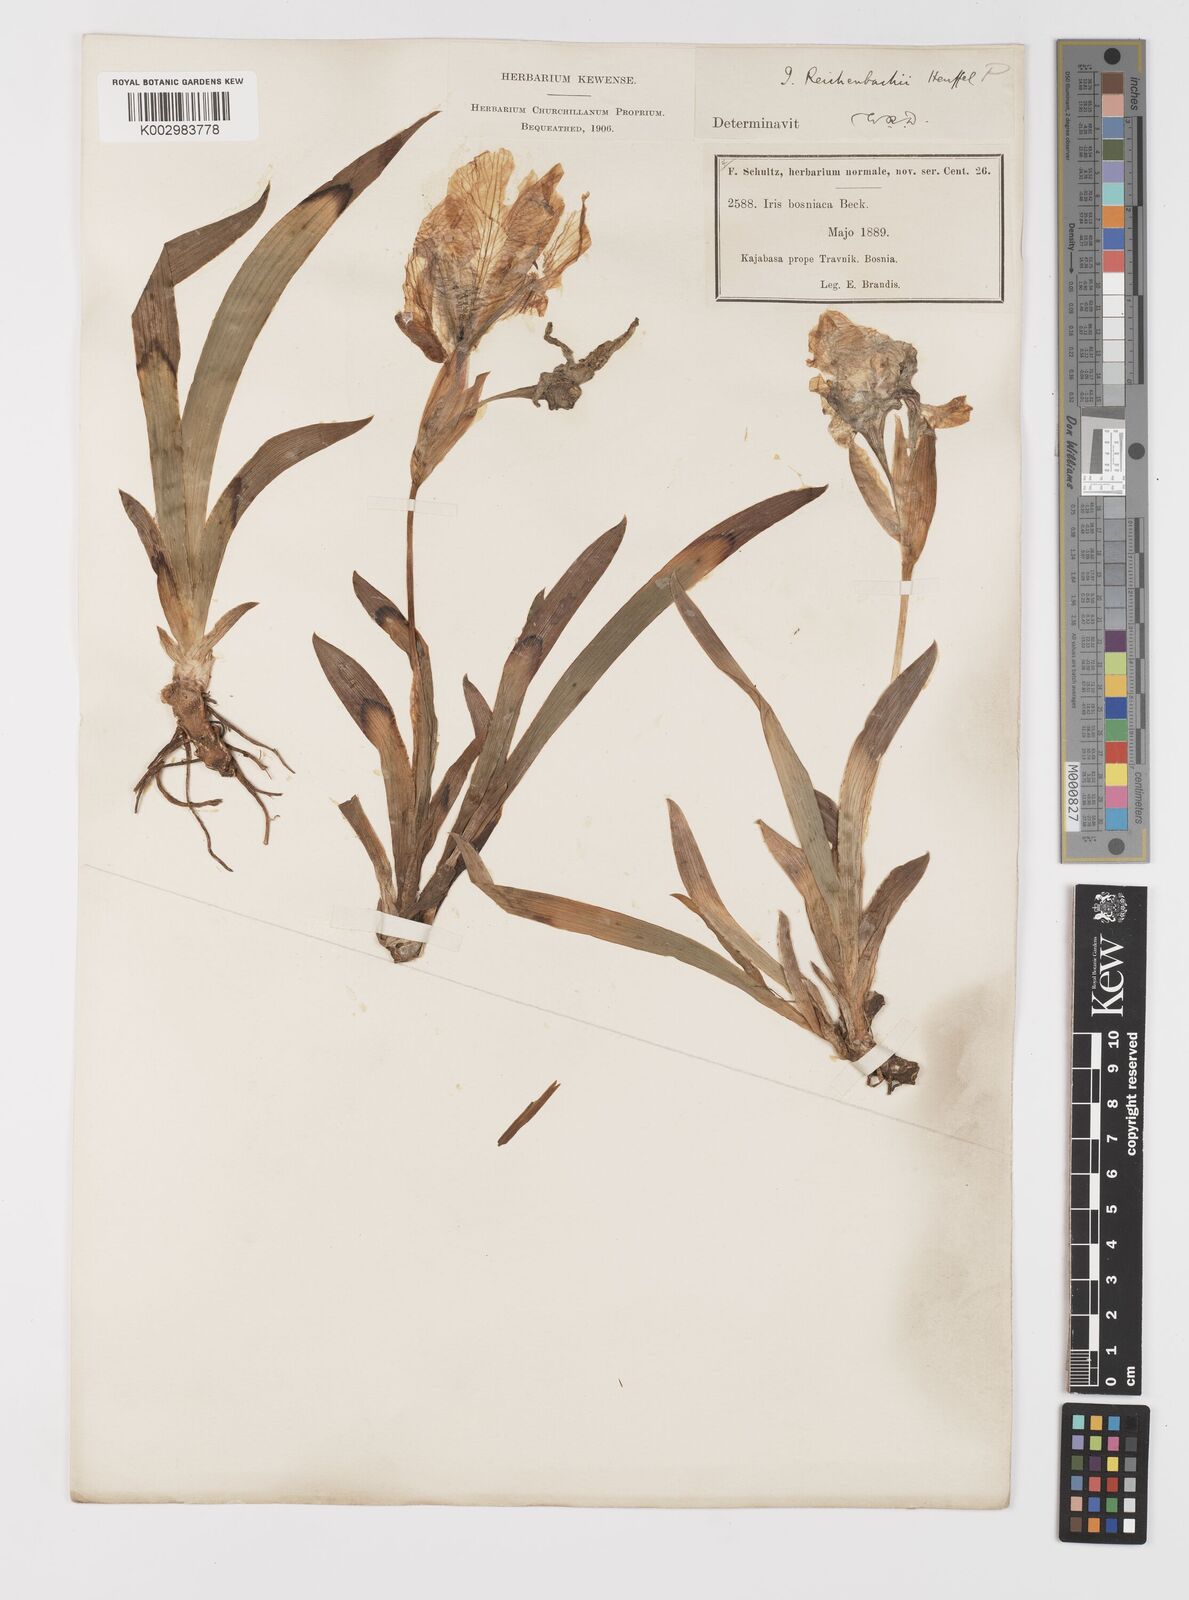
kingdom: Plantae
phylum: Tracheophyta
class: Liliopsida
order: Asparagales
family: Iridaceae
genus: Iris
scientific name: Iris reichenbachii
